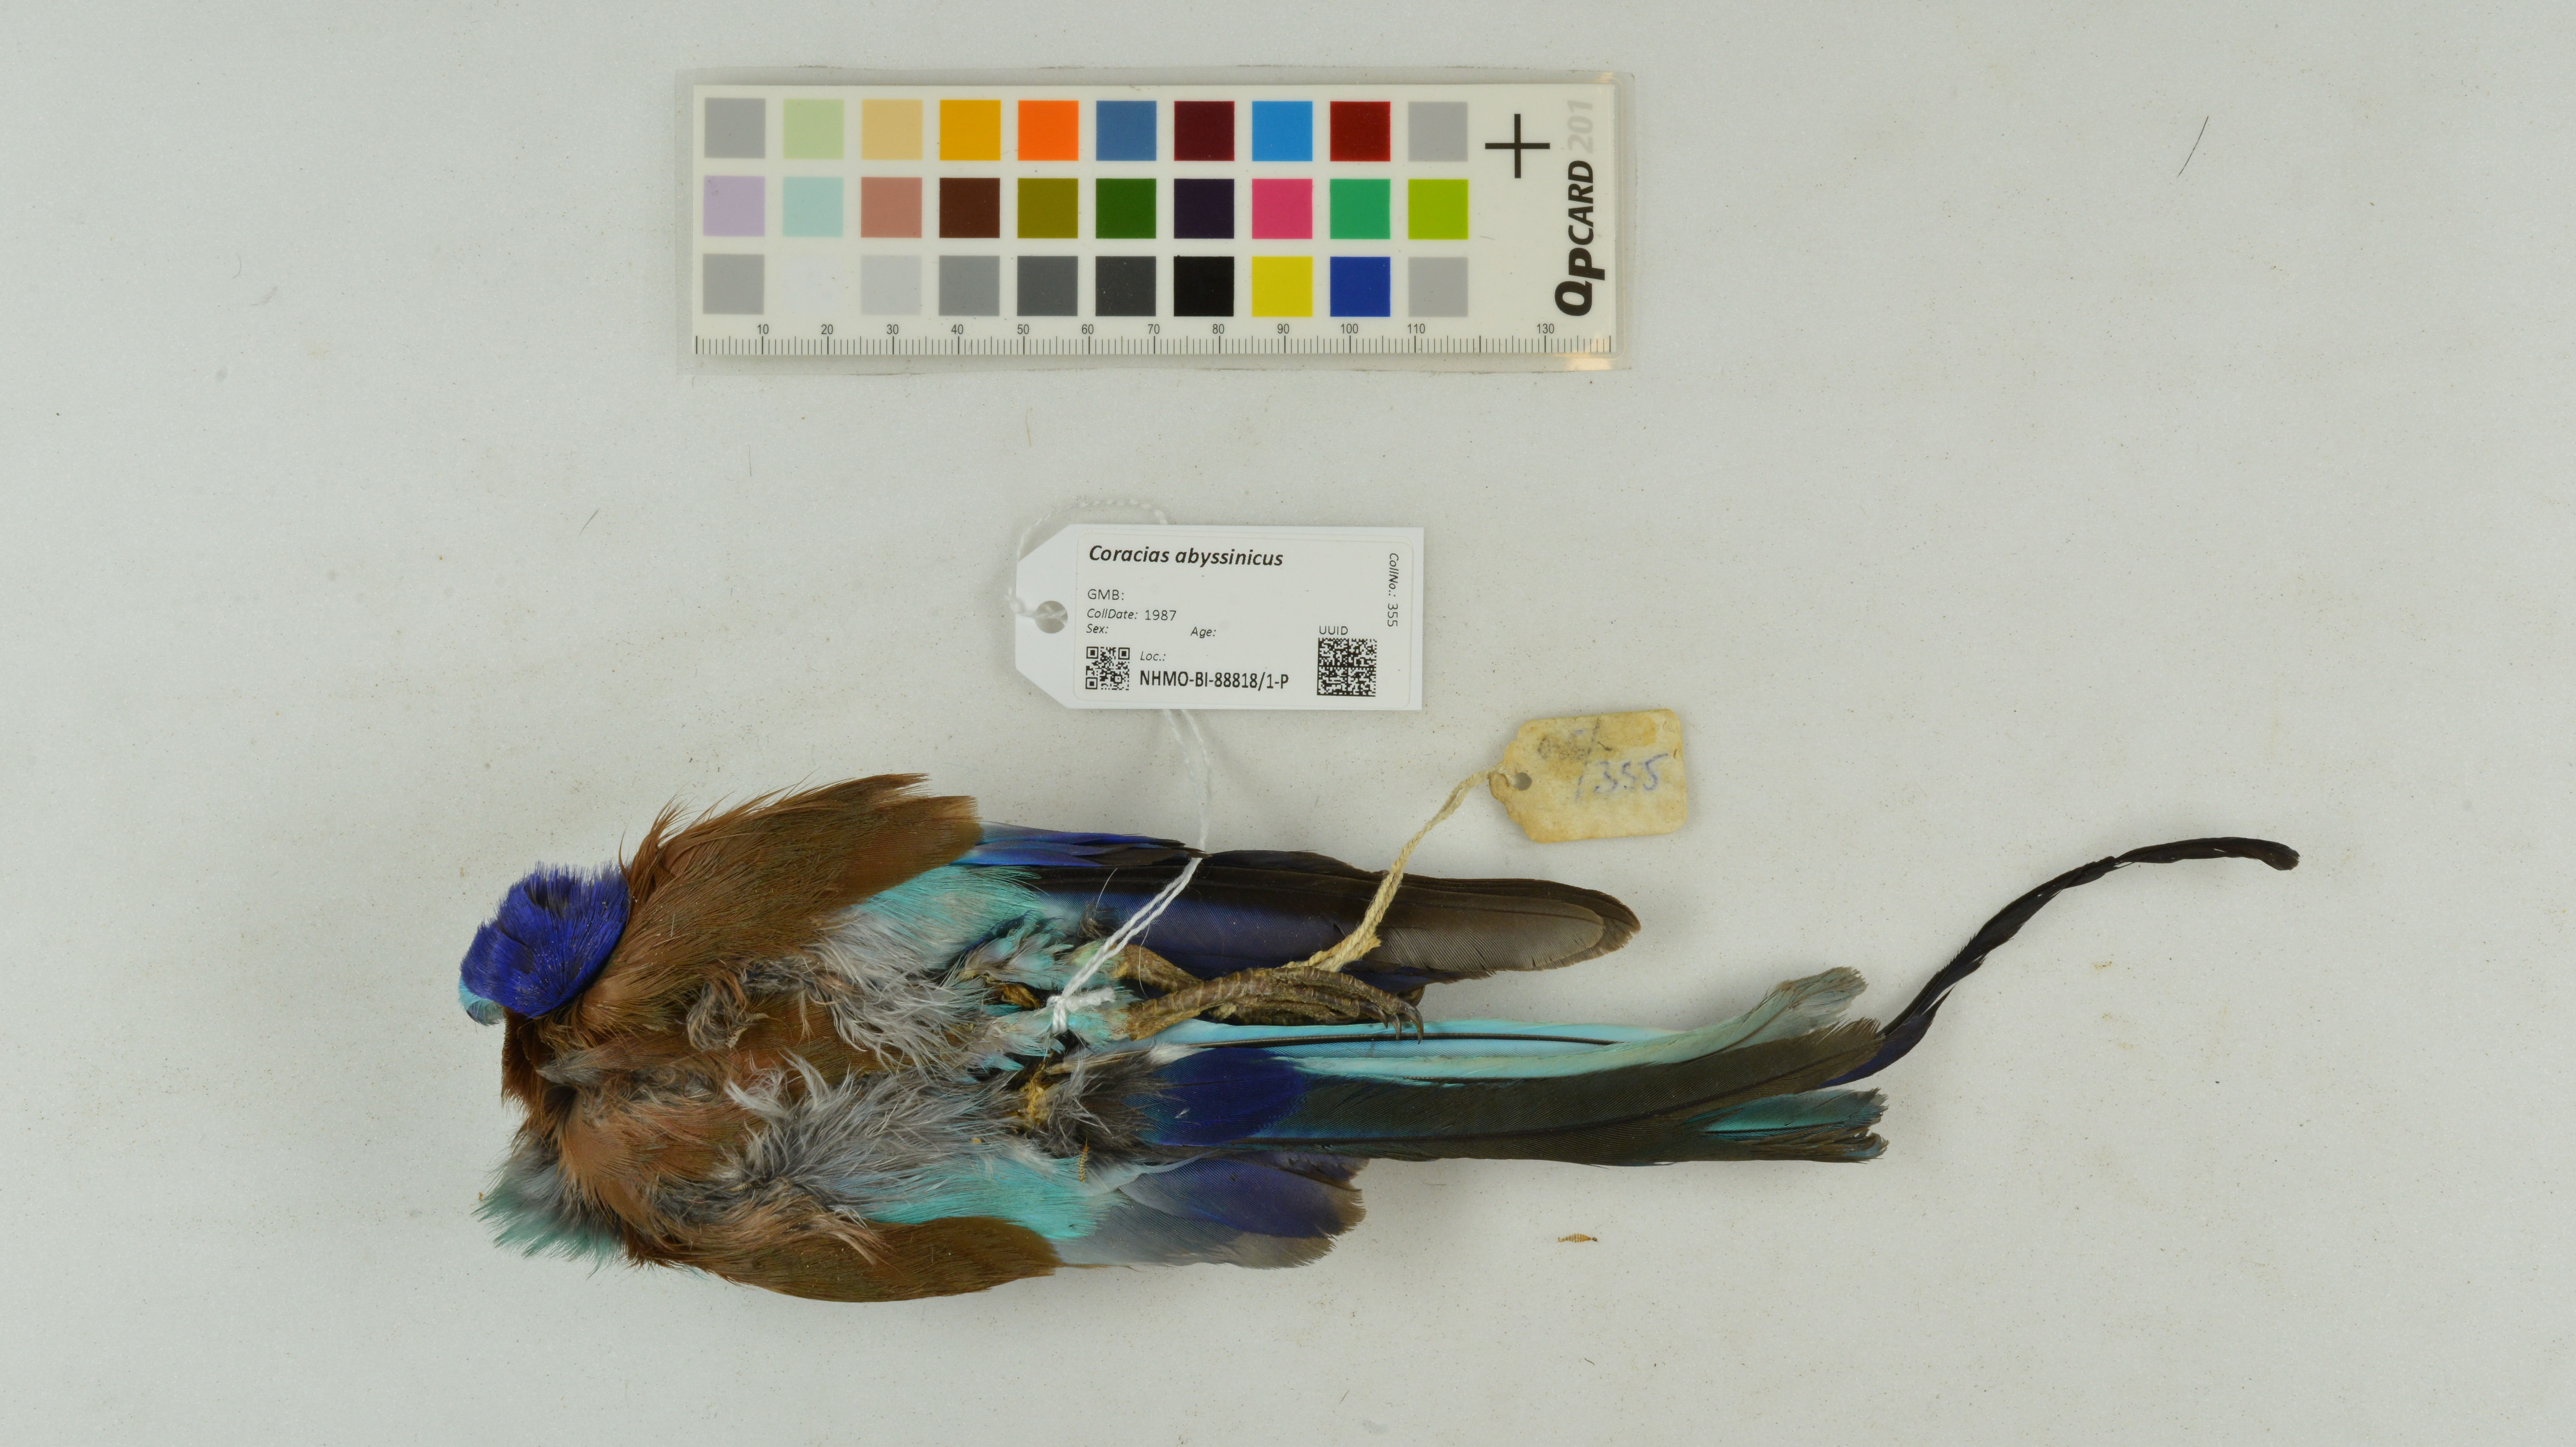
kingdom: Animalia
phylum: Chordata
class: Aves
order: Coraciiformes
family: Coraciidae
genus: Coracias
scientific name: Coracias abyssinicus
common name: Abyssinian roller
